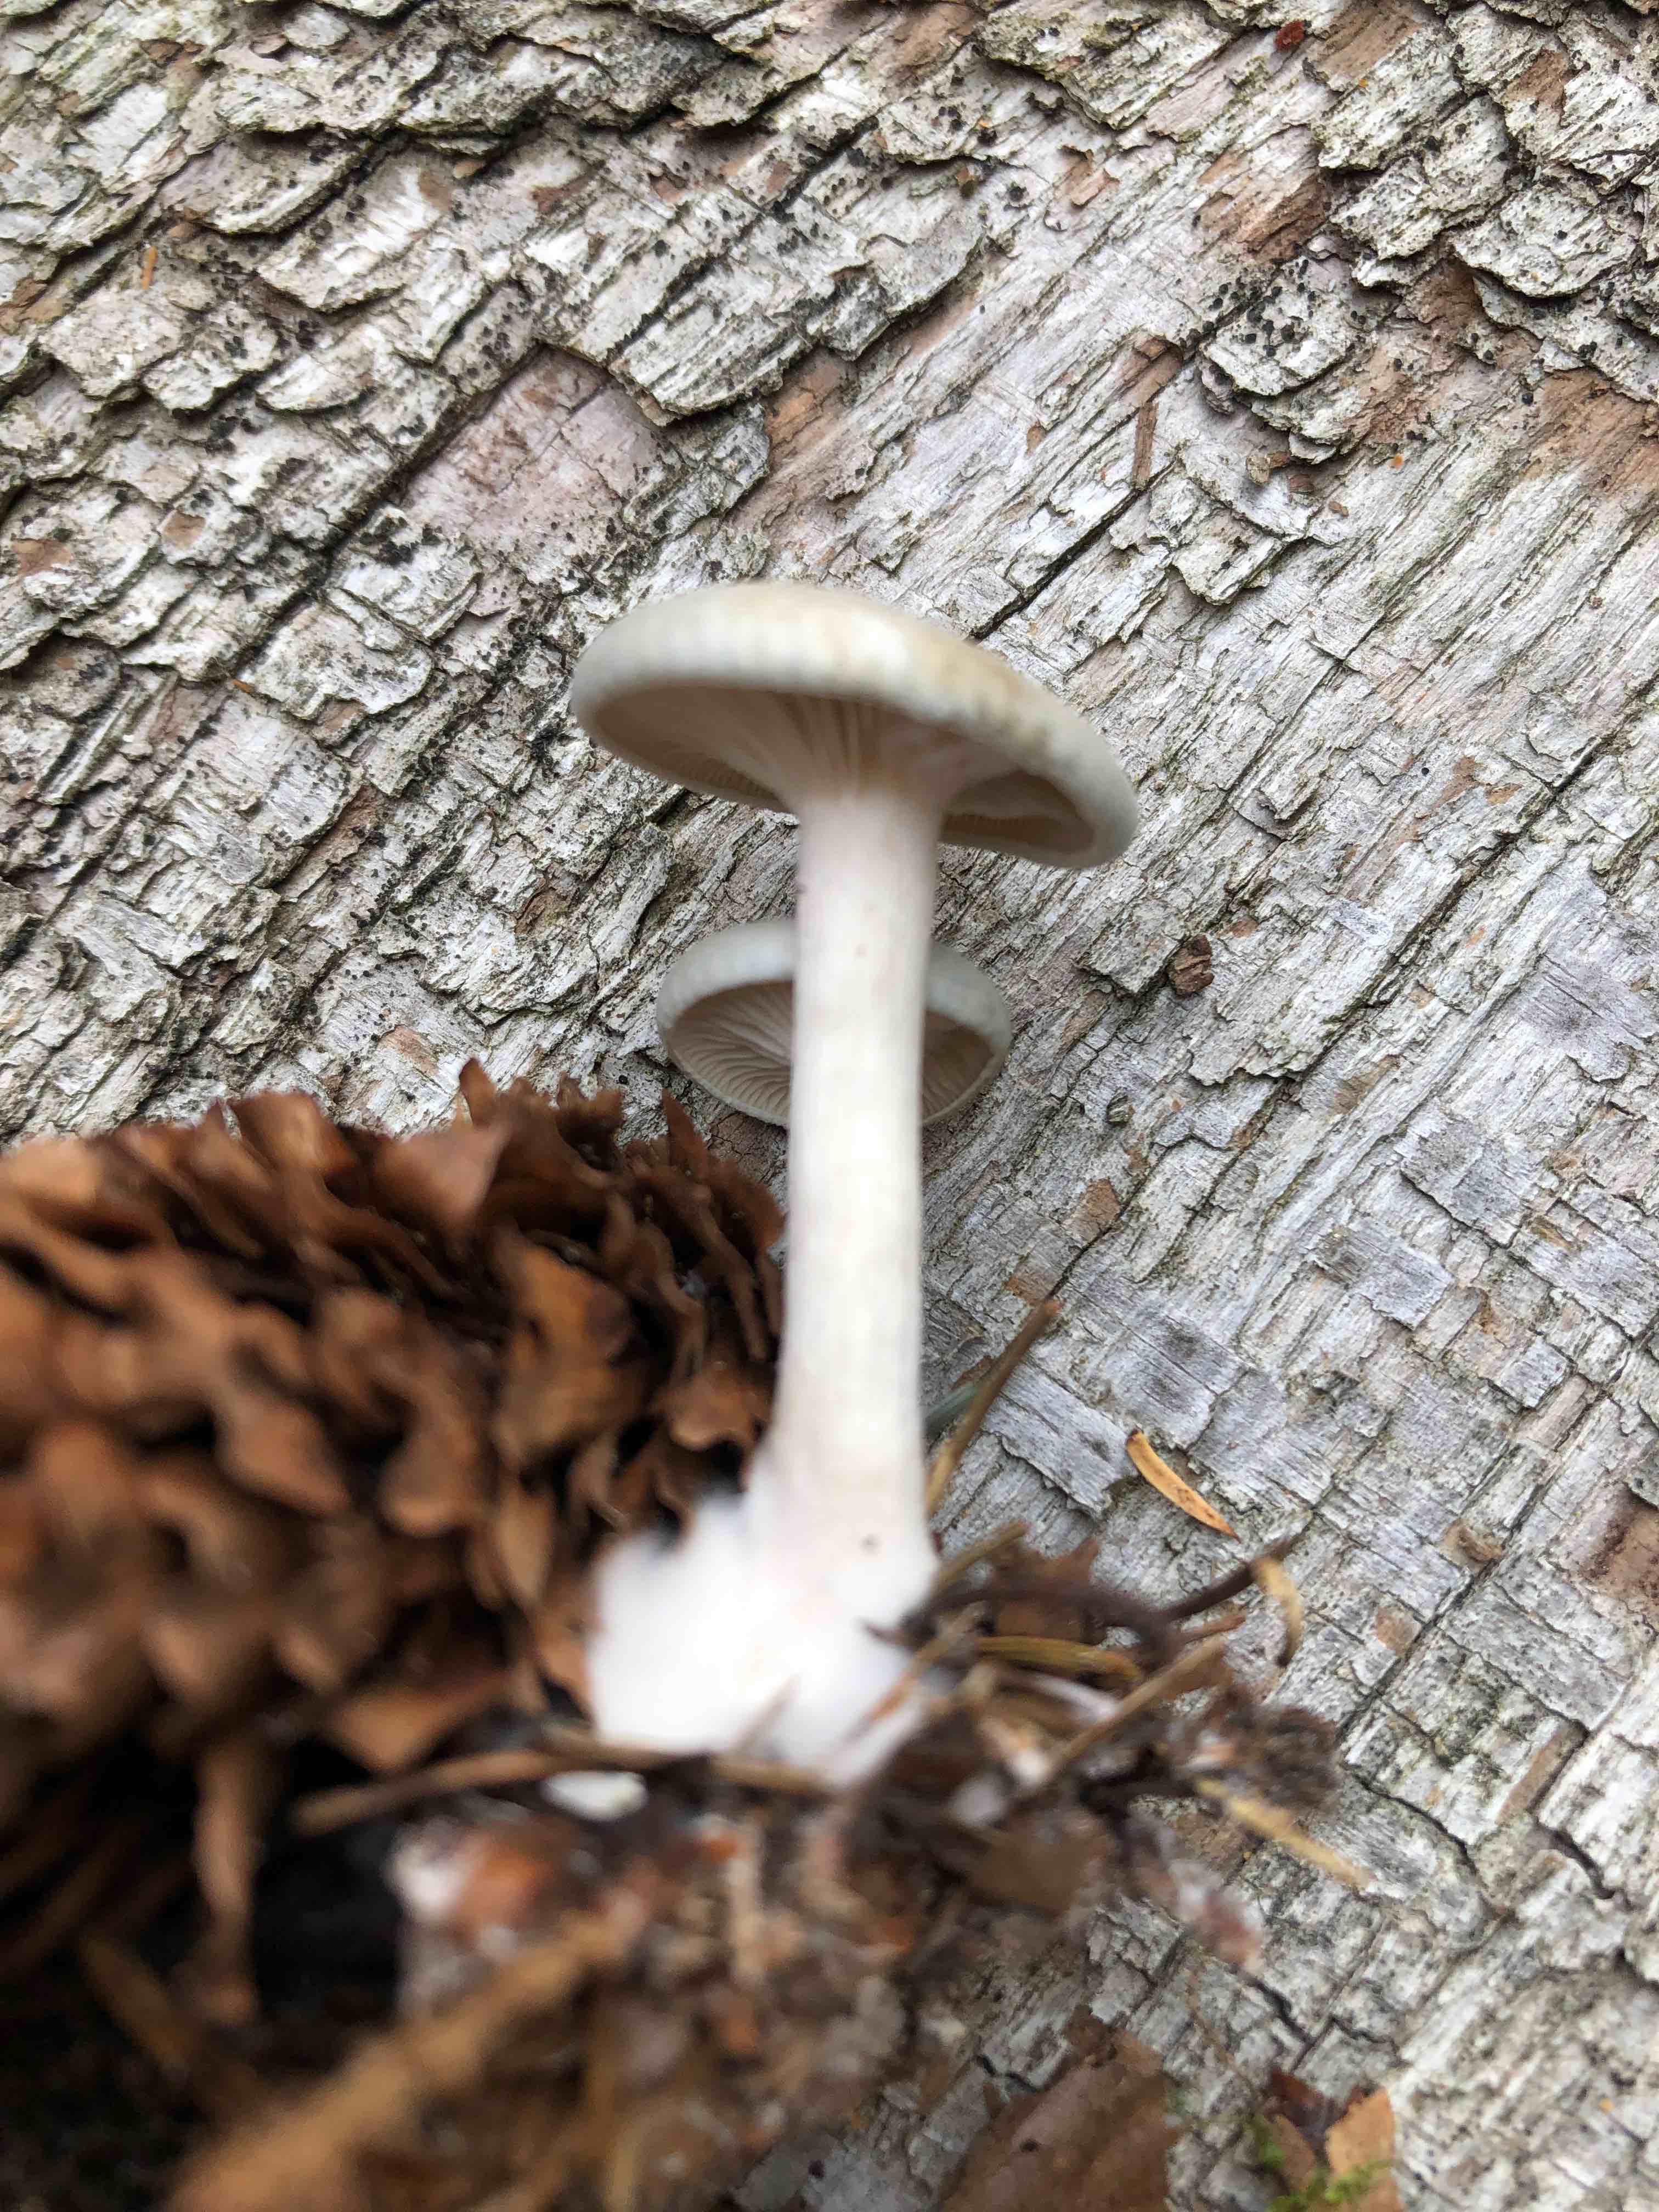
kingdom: Fungi
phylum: Basidiomycota
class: Agaricomycetes
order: Agaricales
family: Tricholomataceae
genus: Clitocybe
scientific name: Clitocybe odora
